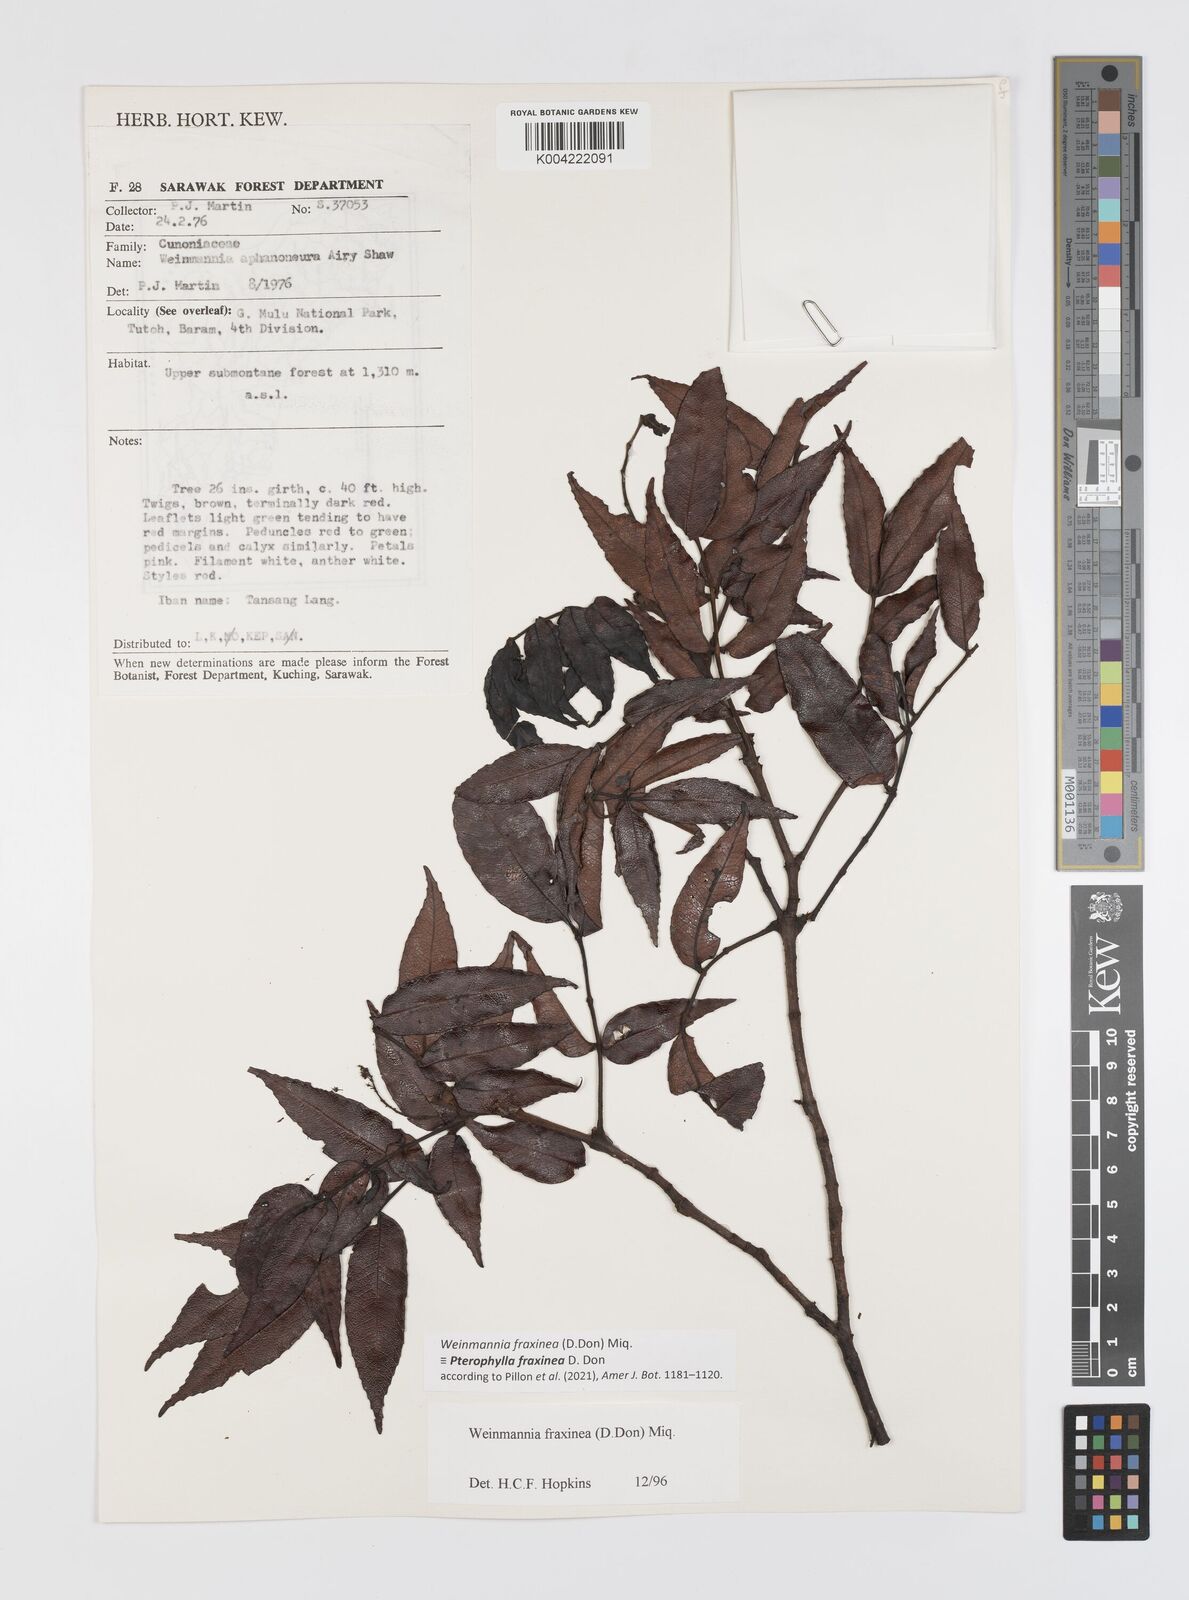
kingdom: Plantae
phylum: Tracheophyta
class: Magnoliopsida
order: Oxalidales
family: Cunoniaceae
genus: Pterophylla
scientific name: Pterophylla fraxinea
